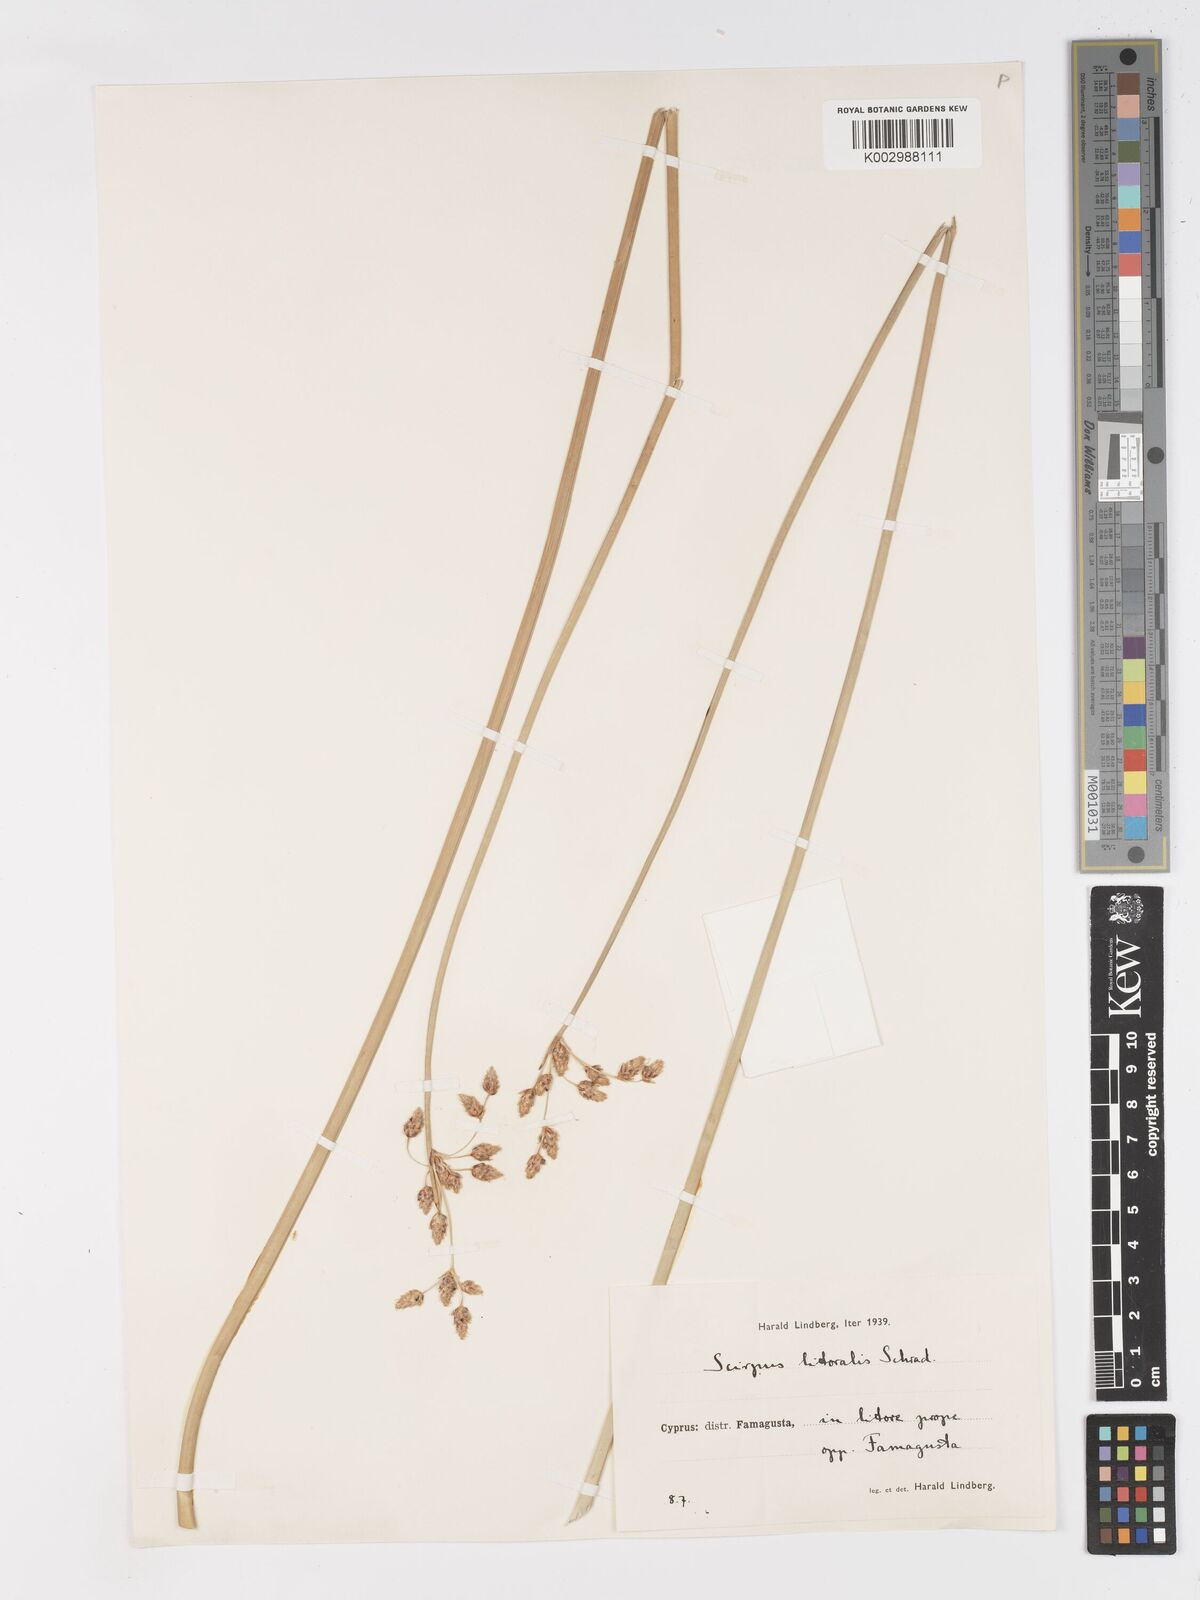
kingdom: Plantae
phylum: Tracheophyta
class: Liliopsida
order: Poales
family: Cyperaceae
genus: Schoenoplectus
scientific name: Schoenoplectus litoralis
